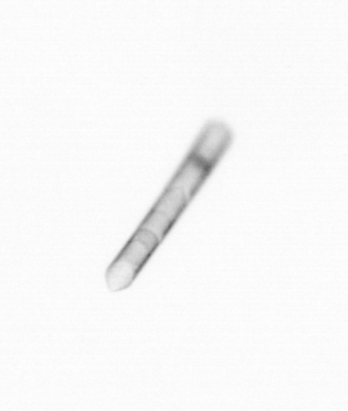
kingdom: Chromista
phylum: Ochrophyta
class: Bacillariophyceae
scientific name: Bacillariophyceae
